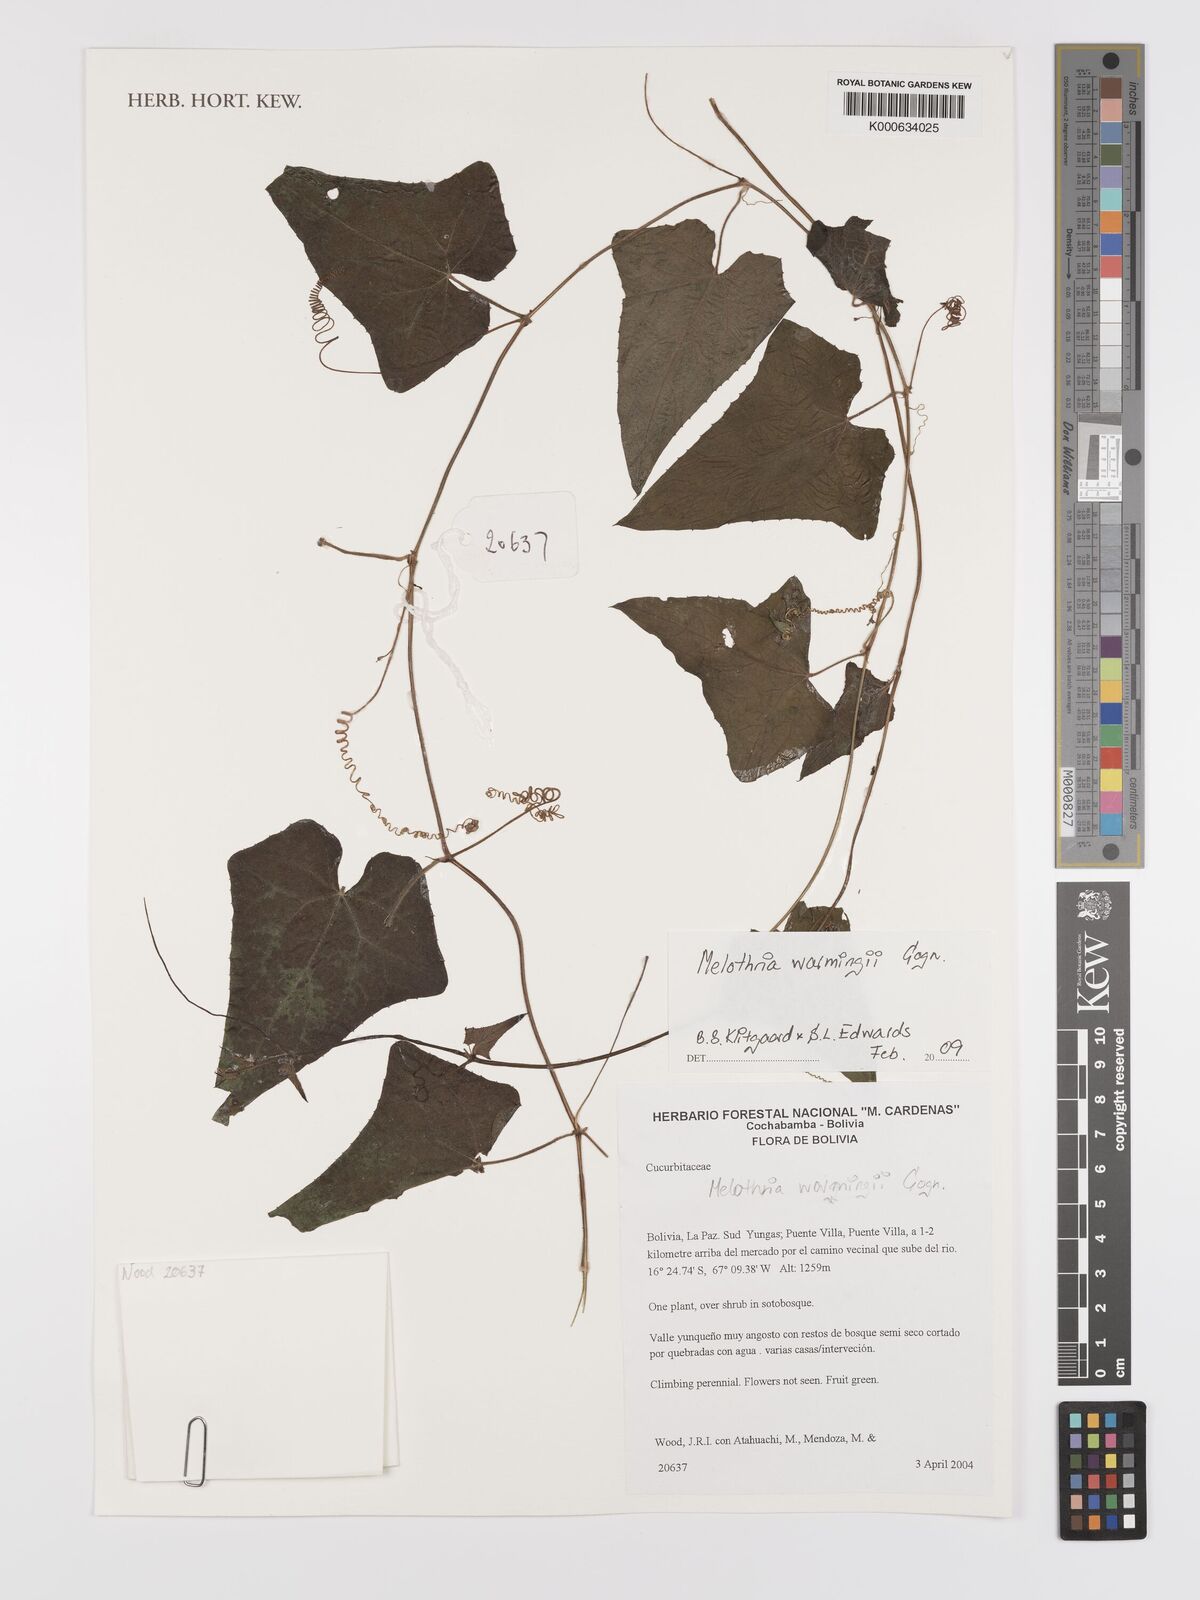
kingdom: Plantae
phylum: Tracheophyta
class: Magnoliopsida
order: Cucurbitales
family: Cucurbitaceae
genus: Melothria
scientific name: Melothria warmingii
